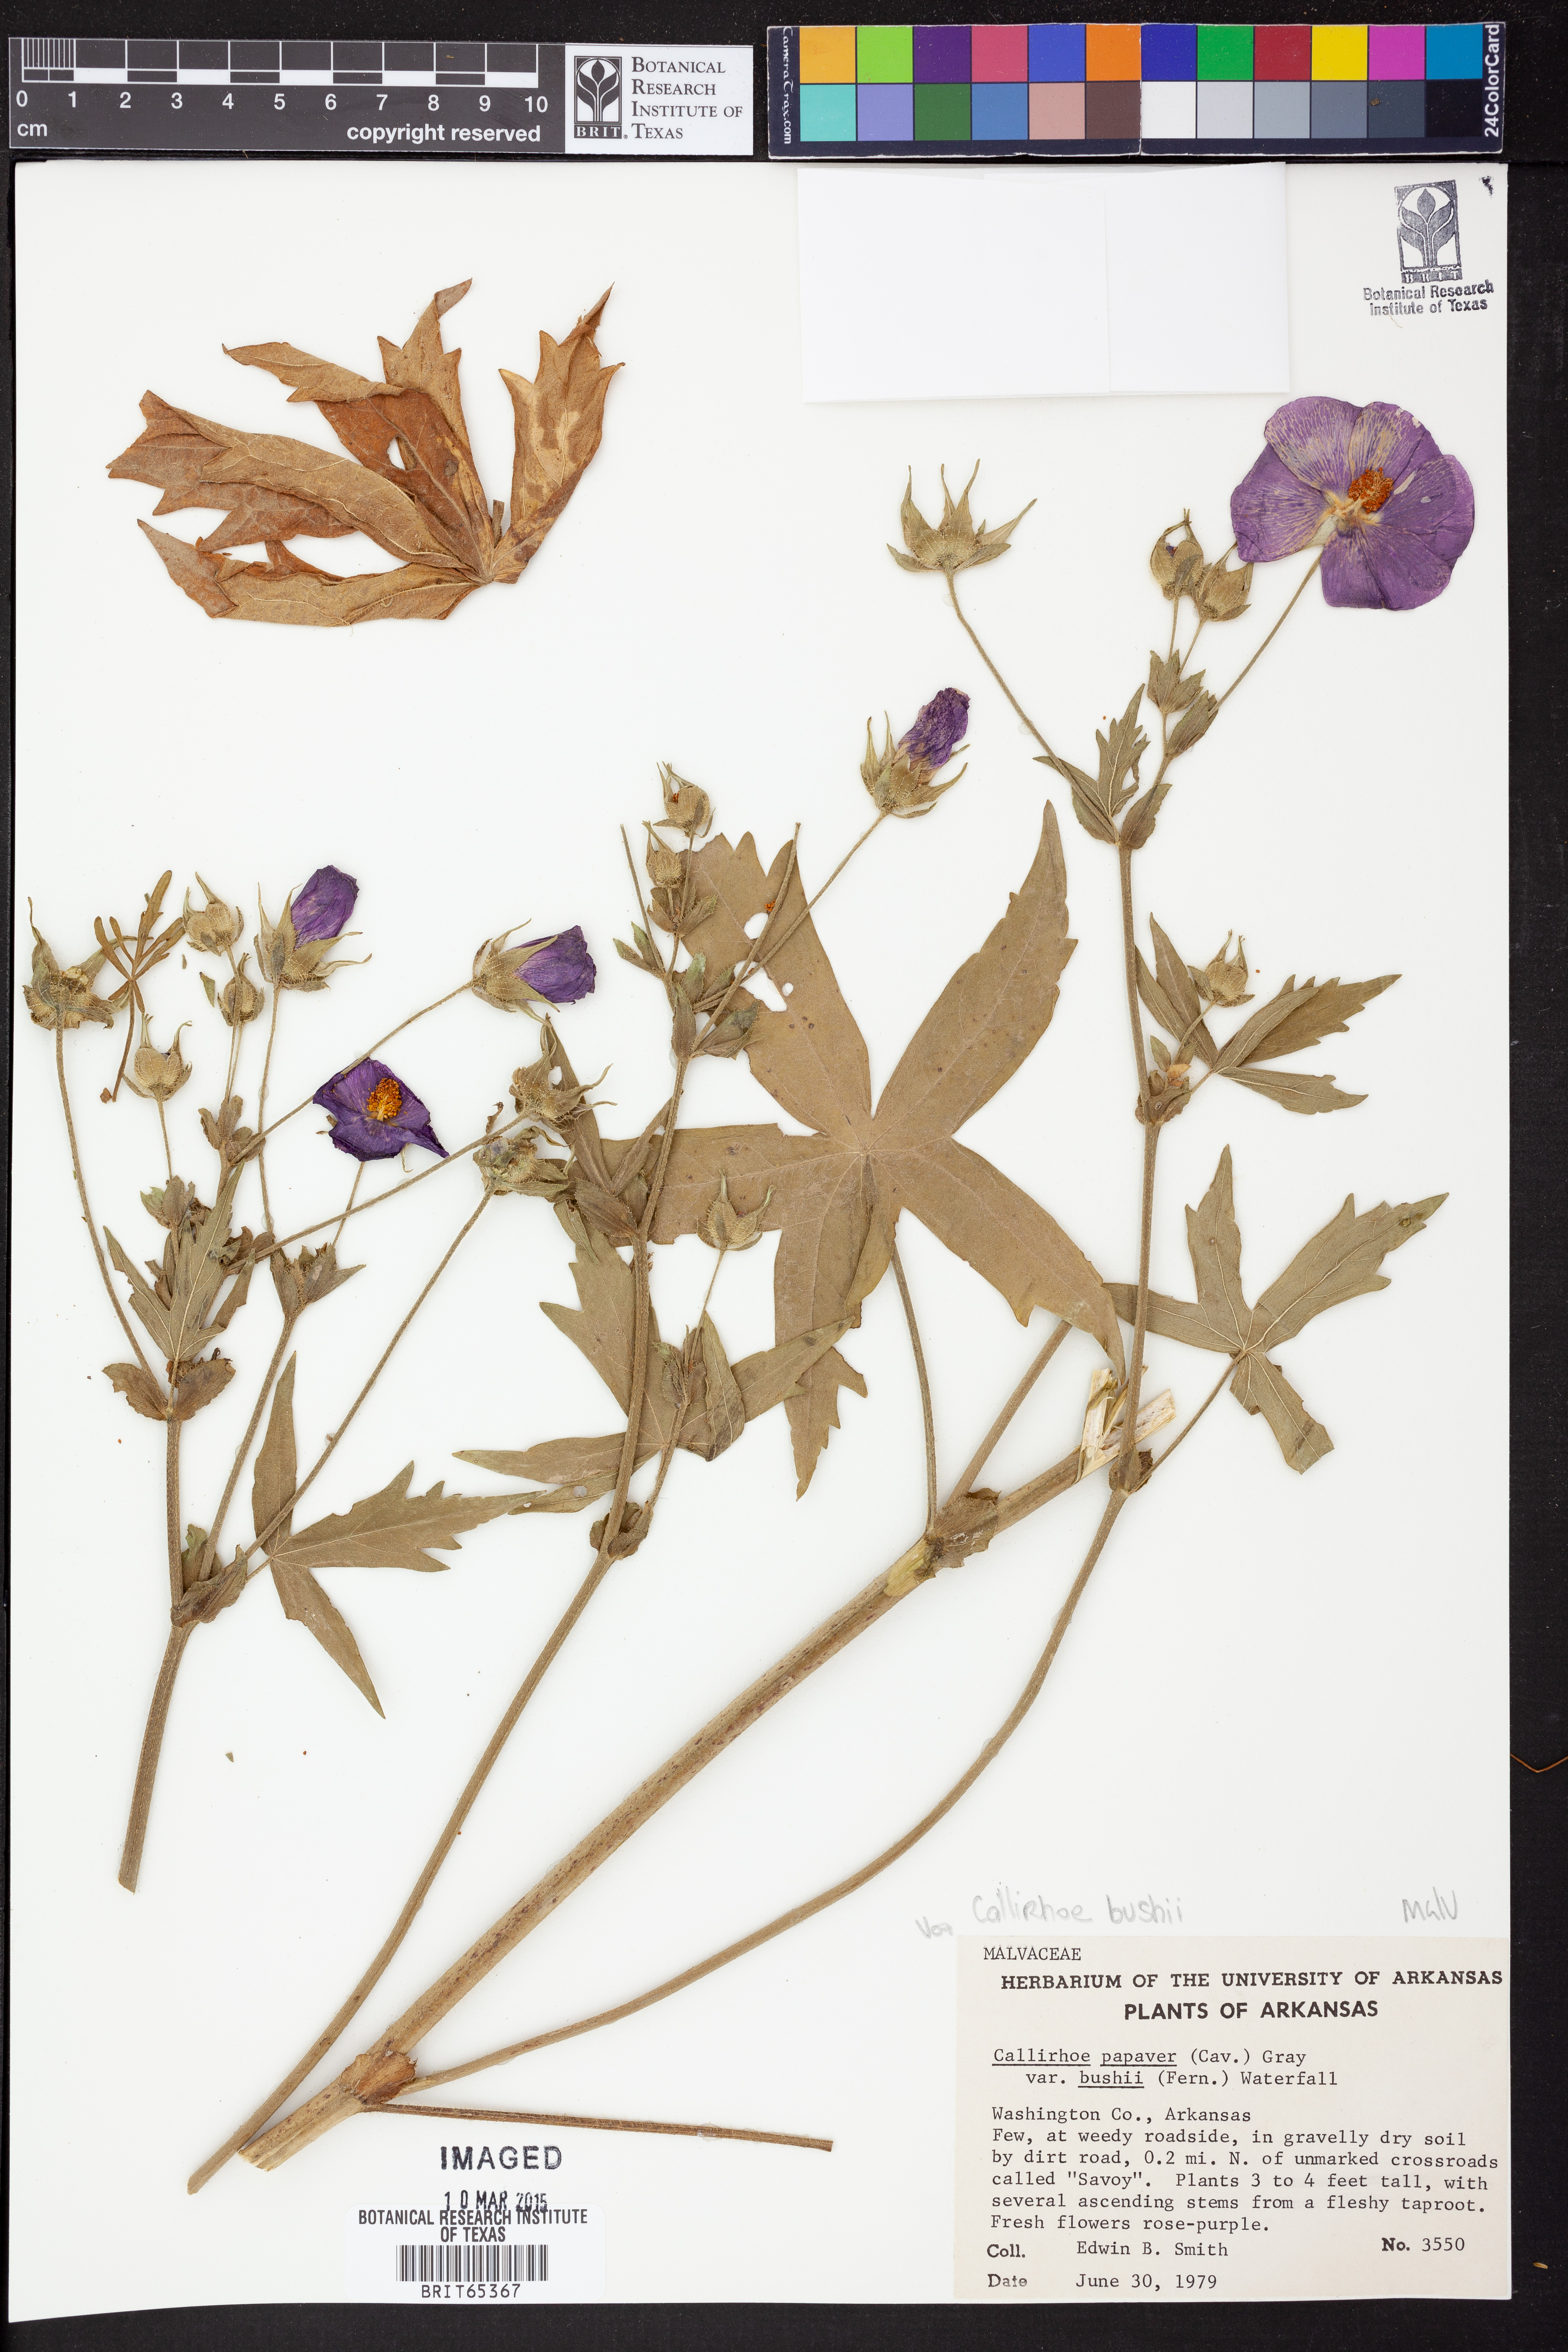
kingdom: Plantae
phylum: Tracheophyta
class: Magnoliopsida
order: Malvales
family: Malvaceae
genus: Callirhoe
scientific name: Callirhoe alcaeoides
